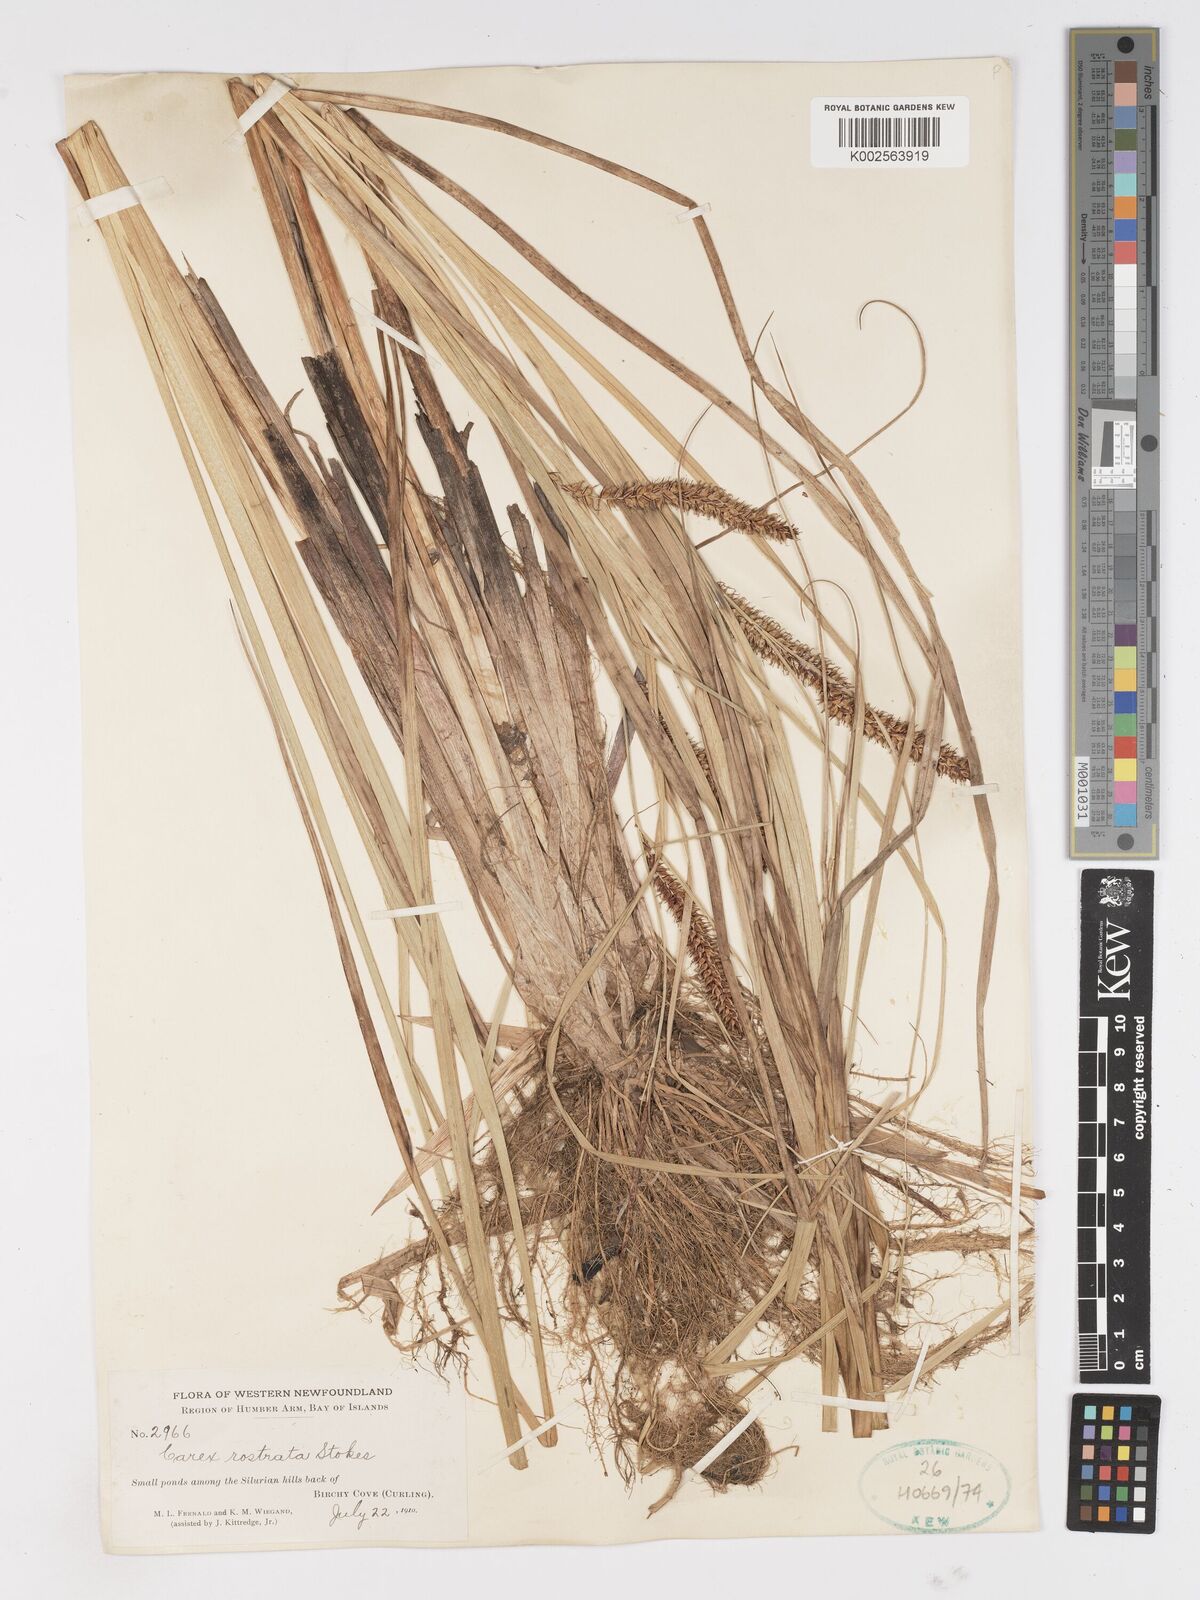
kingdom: Plantae
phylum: Tracheophyta
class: Liliopsida
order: Poales
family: Cyperaceae
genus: Carex
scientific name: Carex rostrata
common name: Bottle sedge
